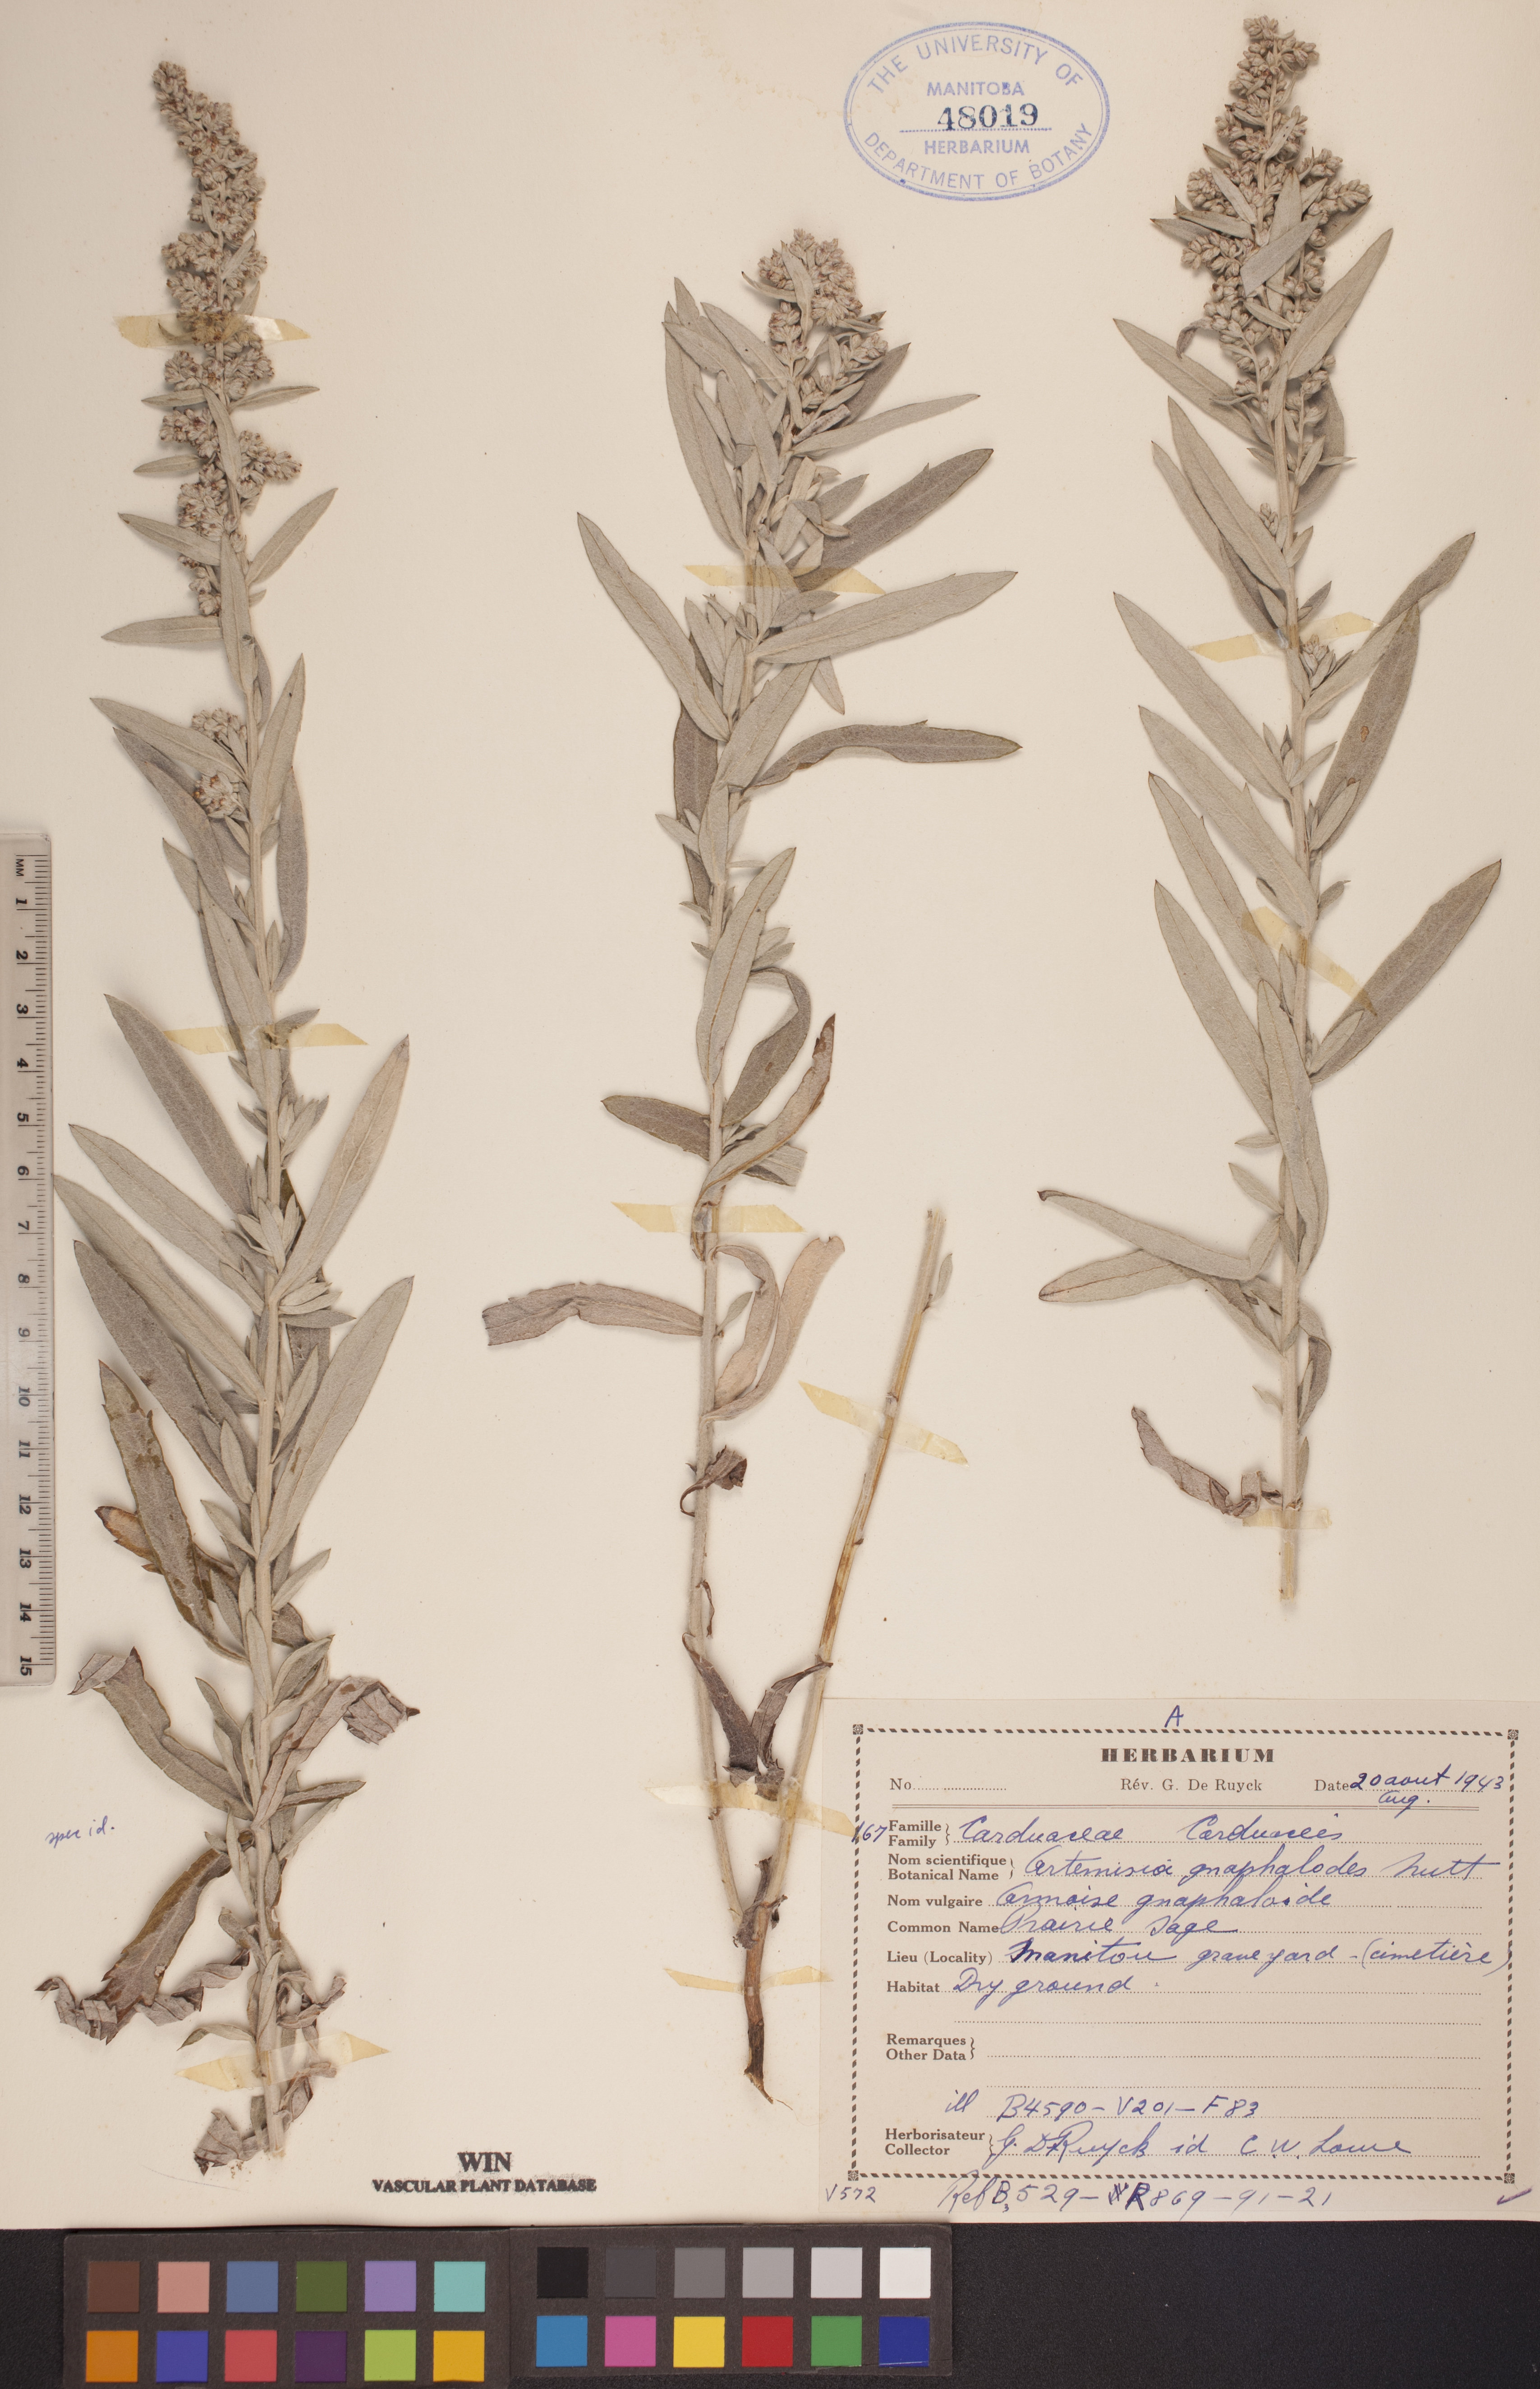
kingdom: Plantae
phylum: Tracheophyta
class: Magnoliopsida
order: Asterales
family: Asteraceae
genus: Artemisia
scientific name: Artemisia ludoviciana
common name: Western mugwort
